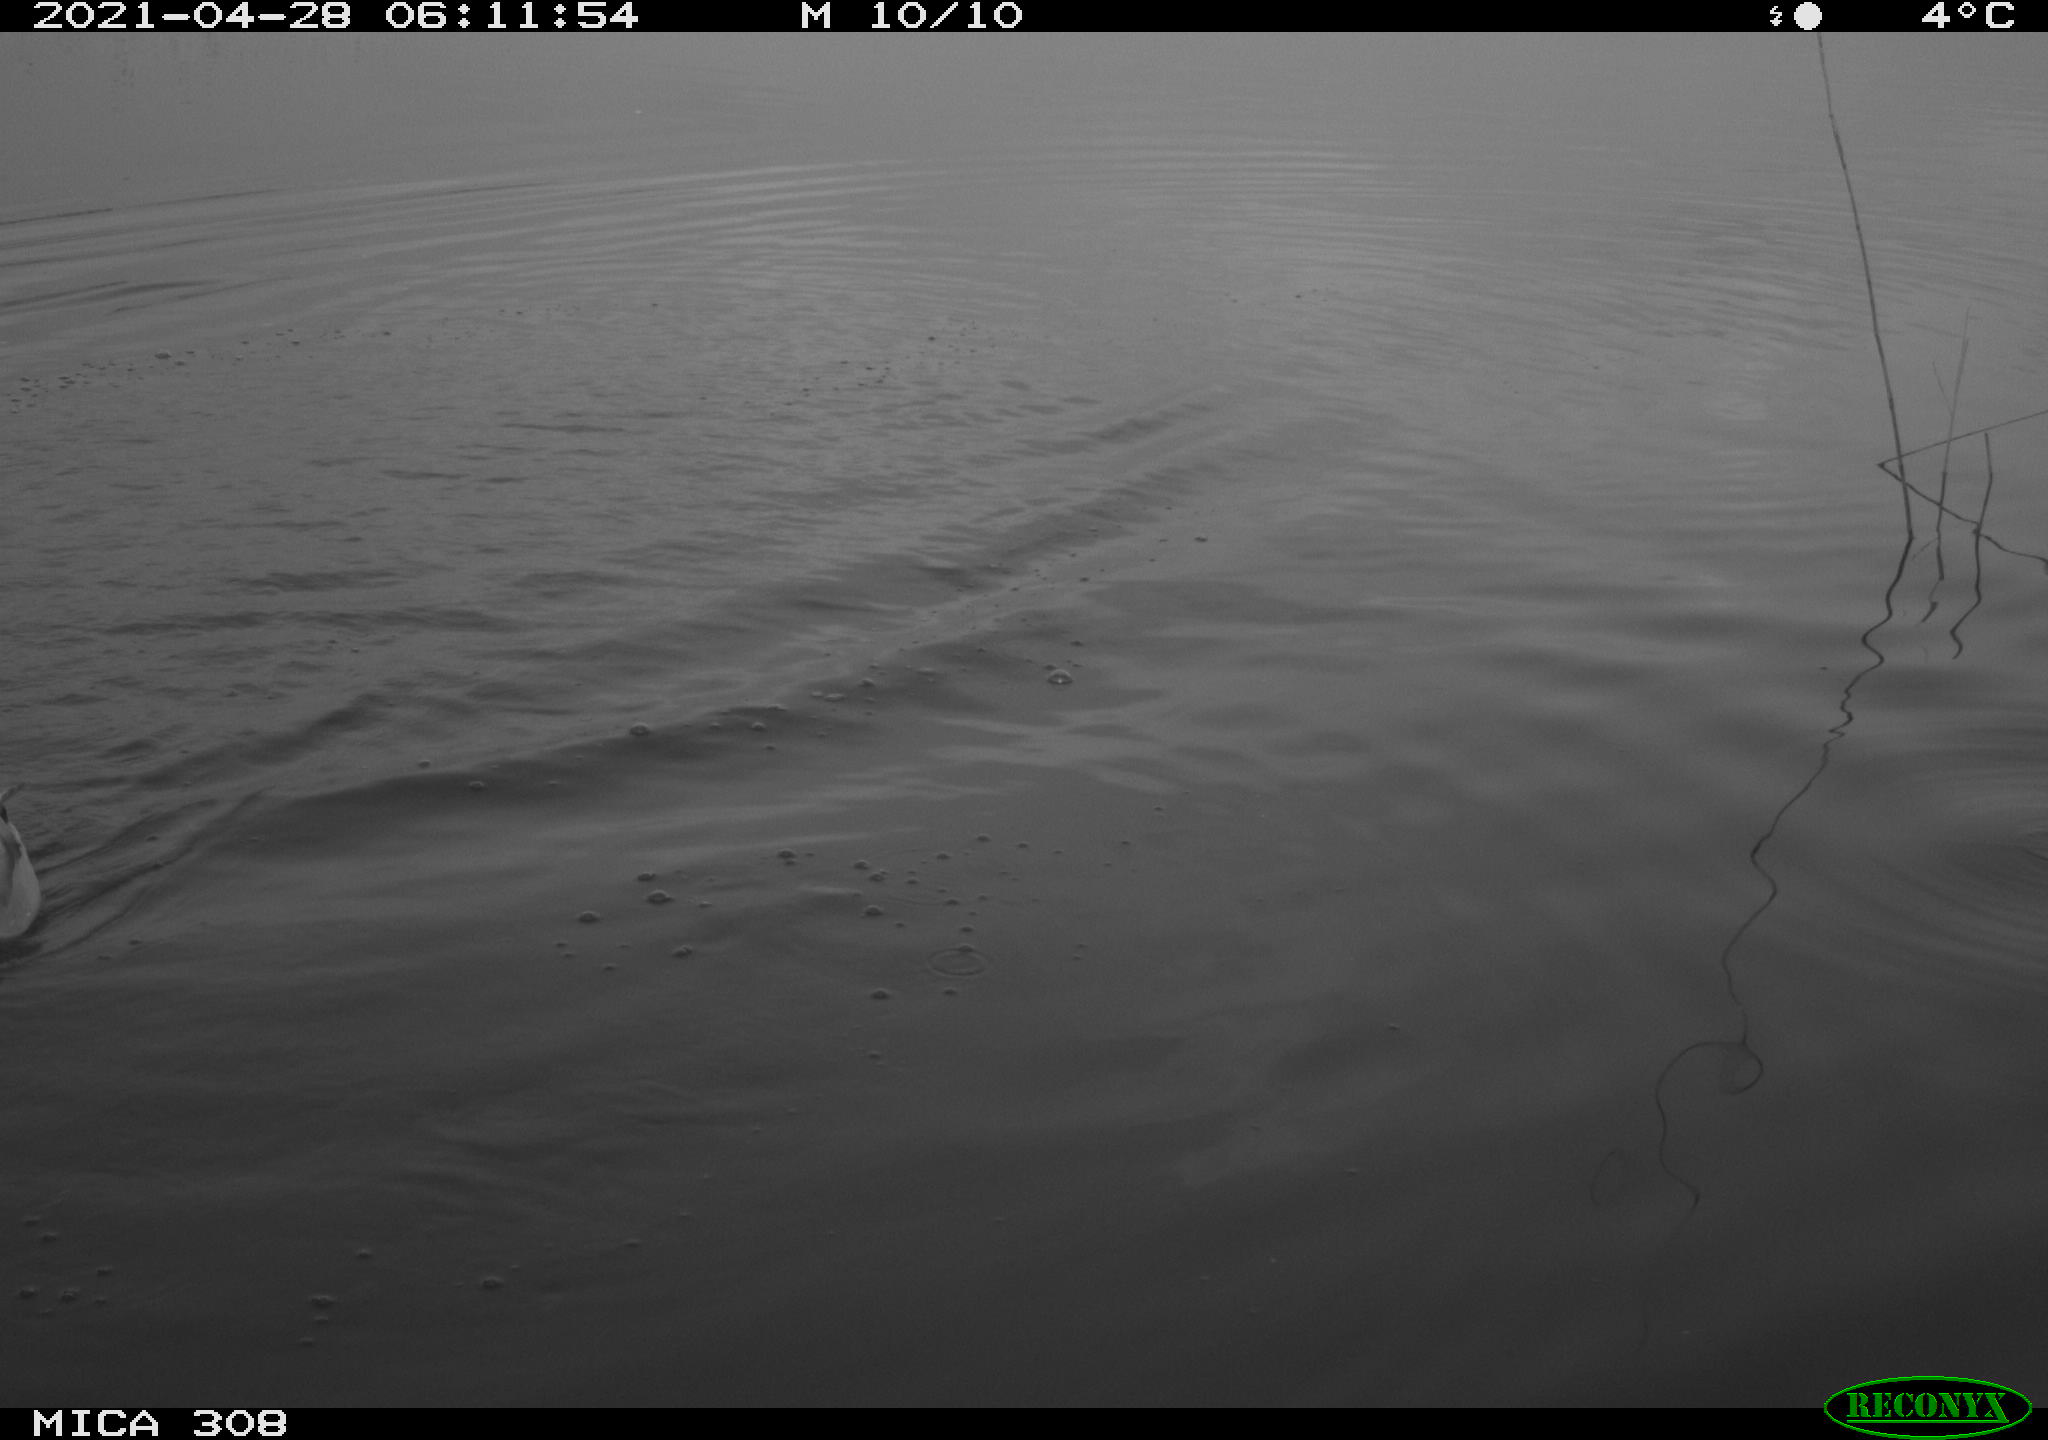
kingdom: Animalia
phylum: Chordata
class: Aves
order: Anseriformes
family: Anatidae
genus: Anas
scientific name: Anas platyrhynchos
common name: Mallard
